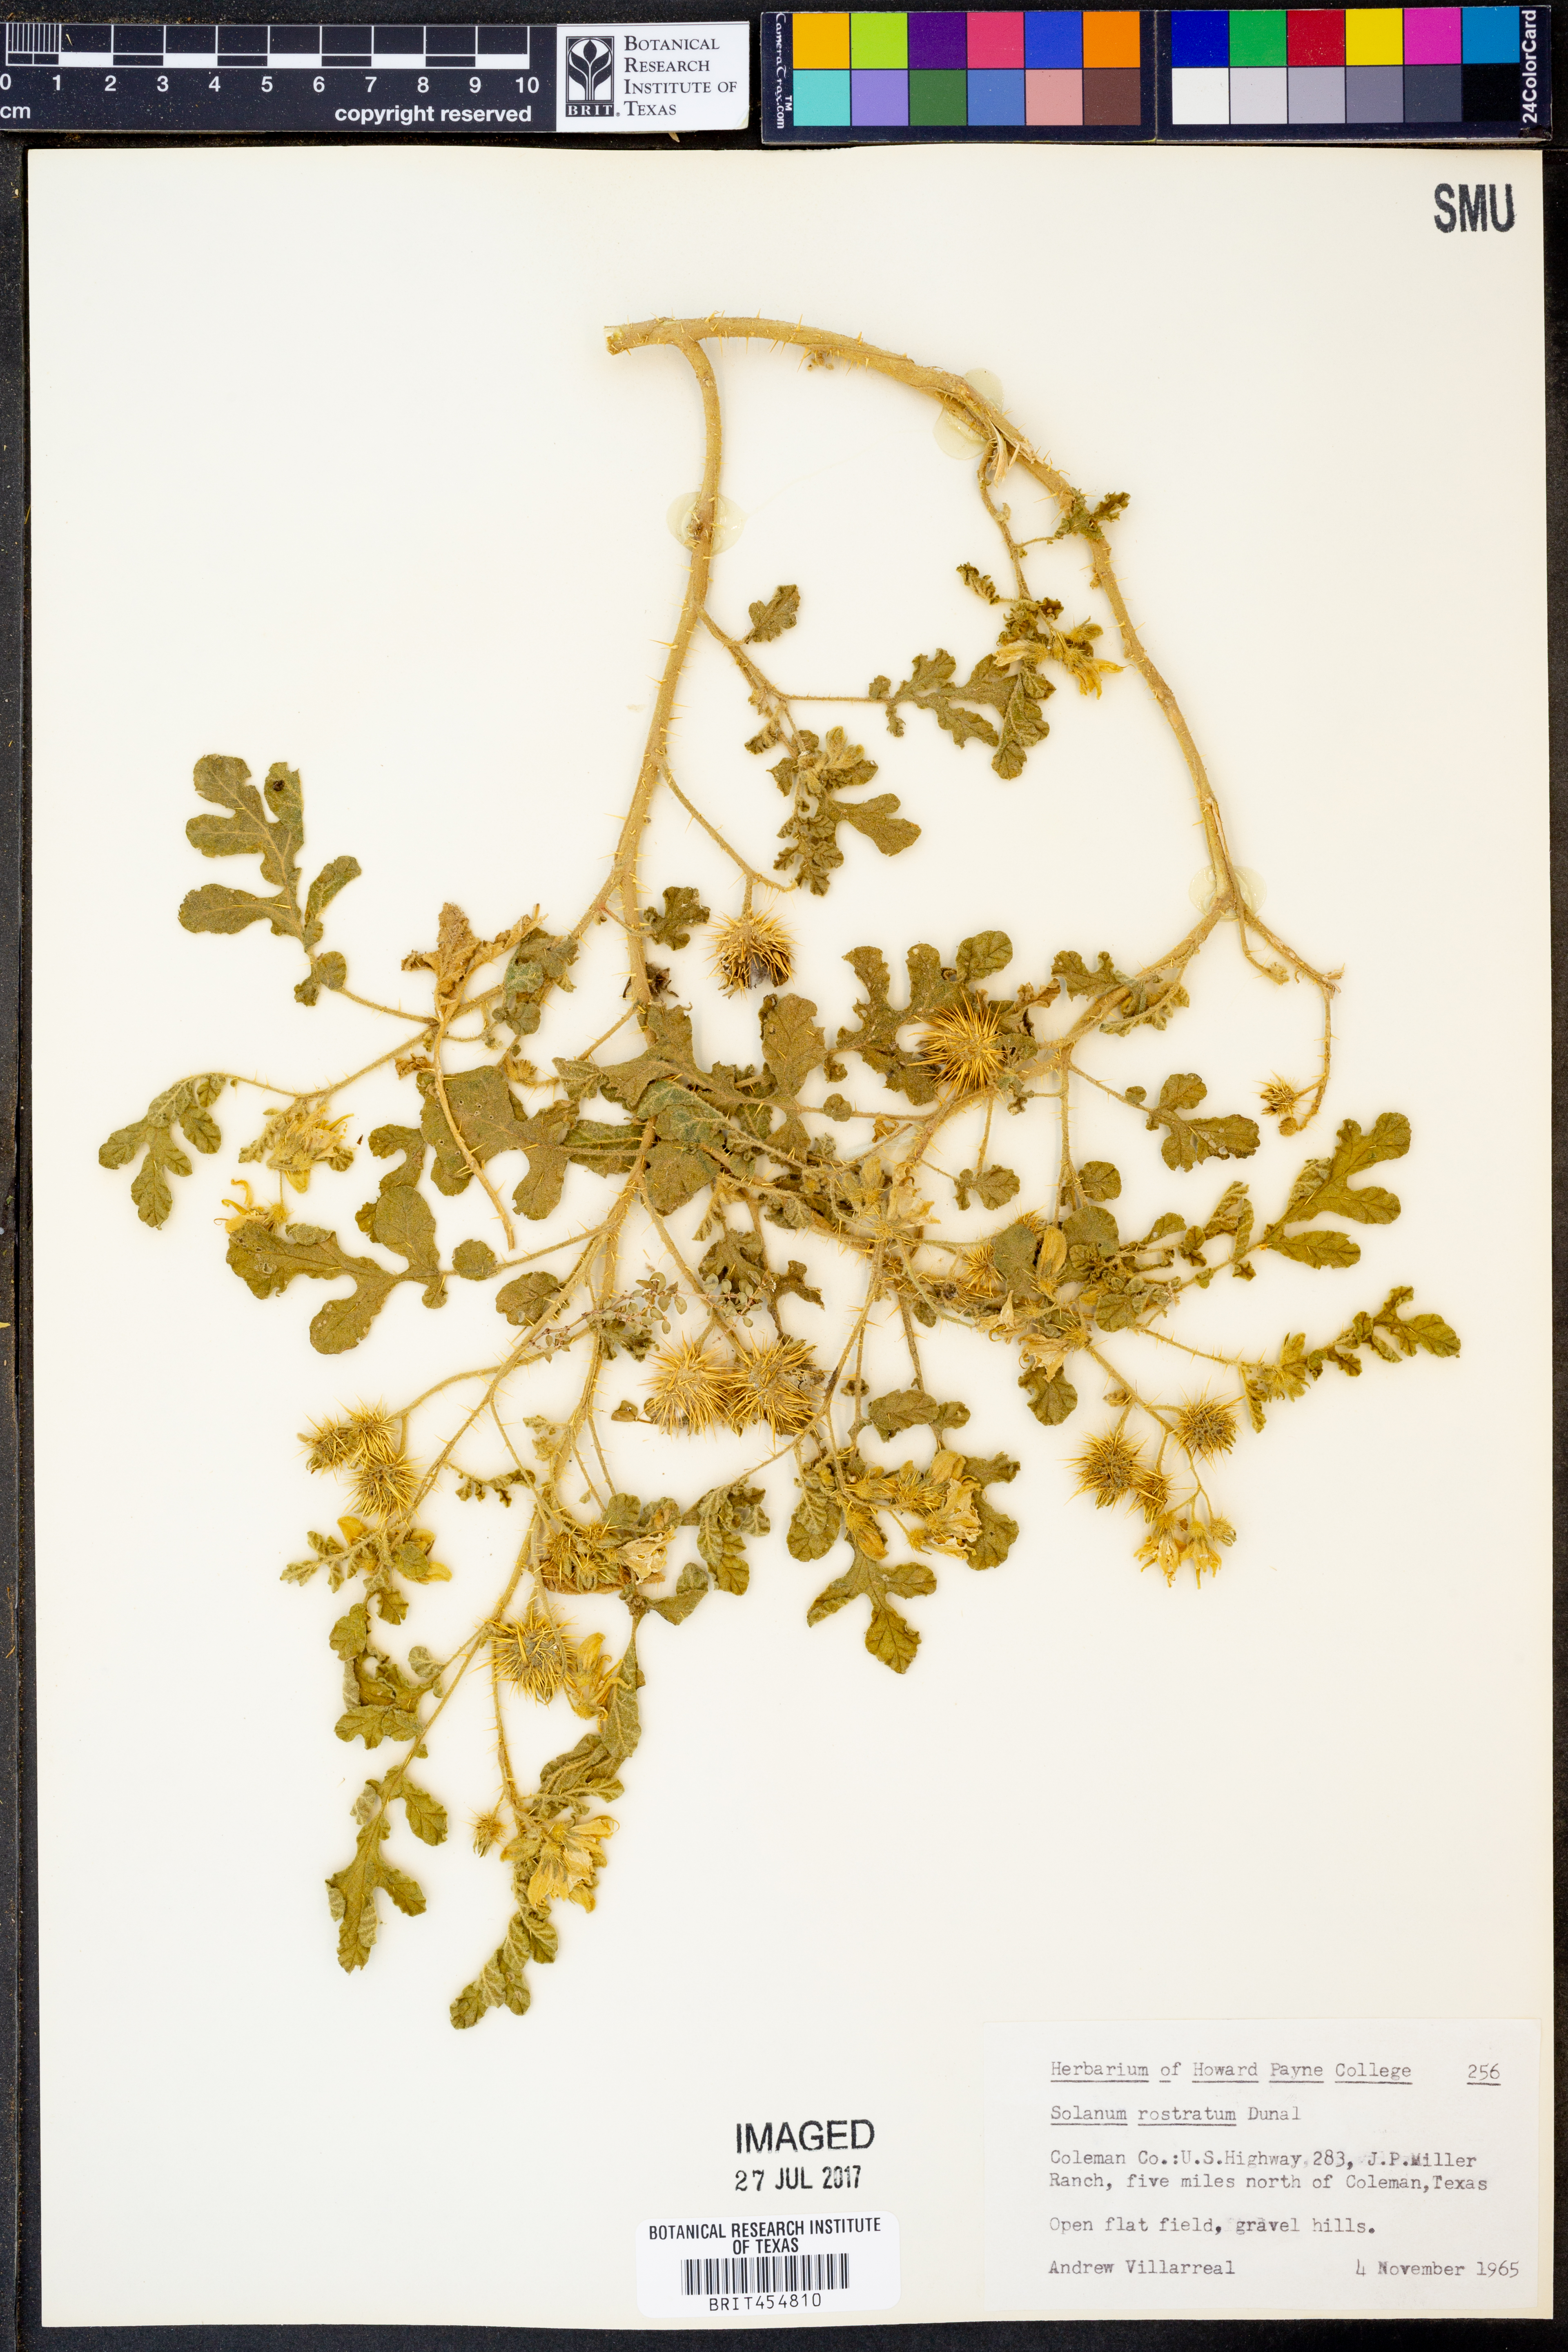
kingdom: Plantae
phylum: Tracheophyta
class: Magnoliopsida
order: Solanales
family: Solanaceae
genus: Solanum
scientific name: Solanum angustifolium
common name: Buffalobur nightshade
